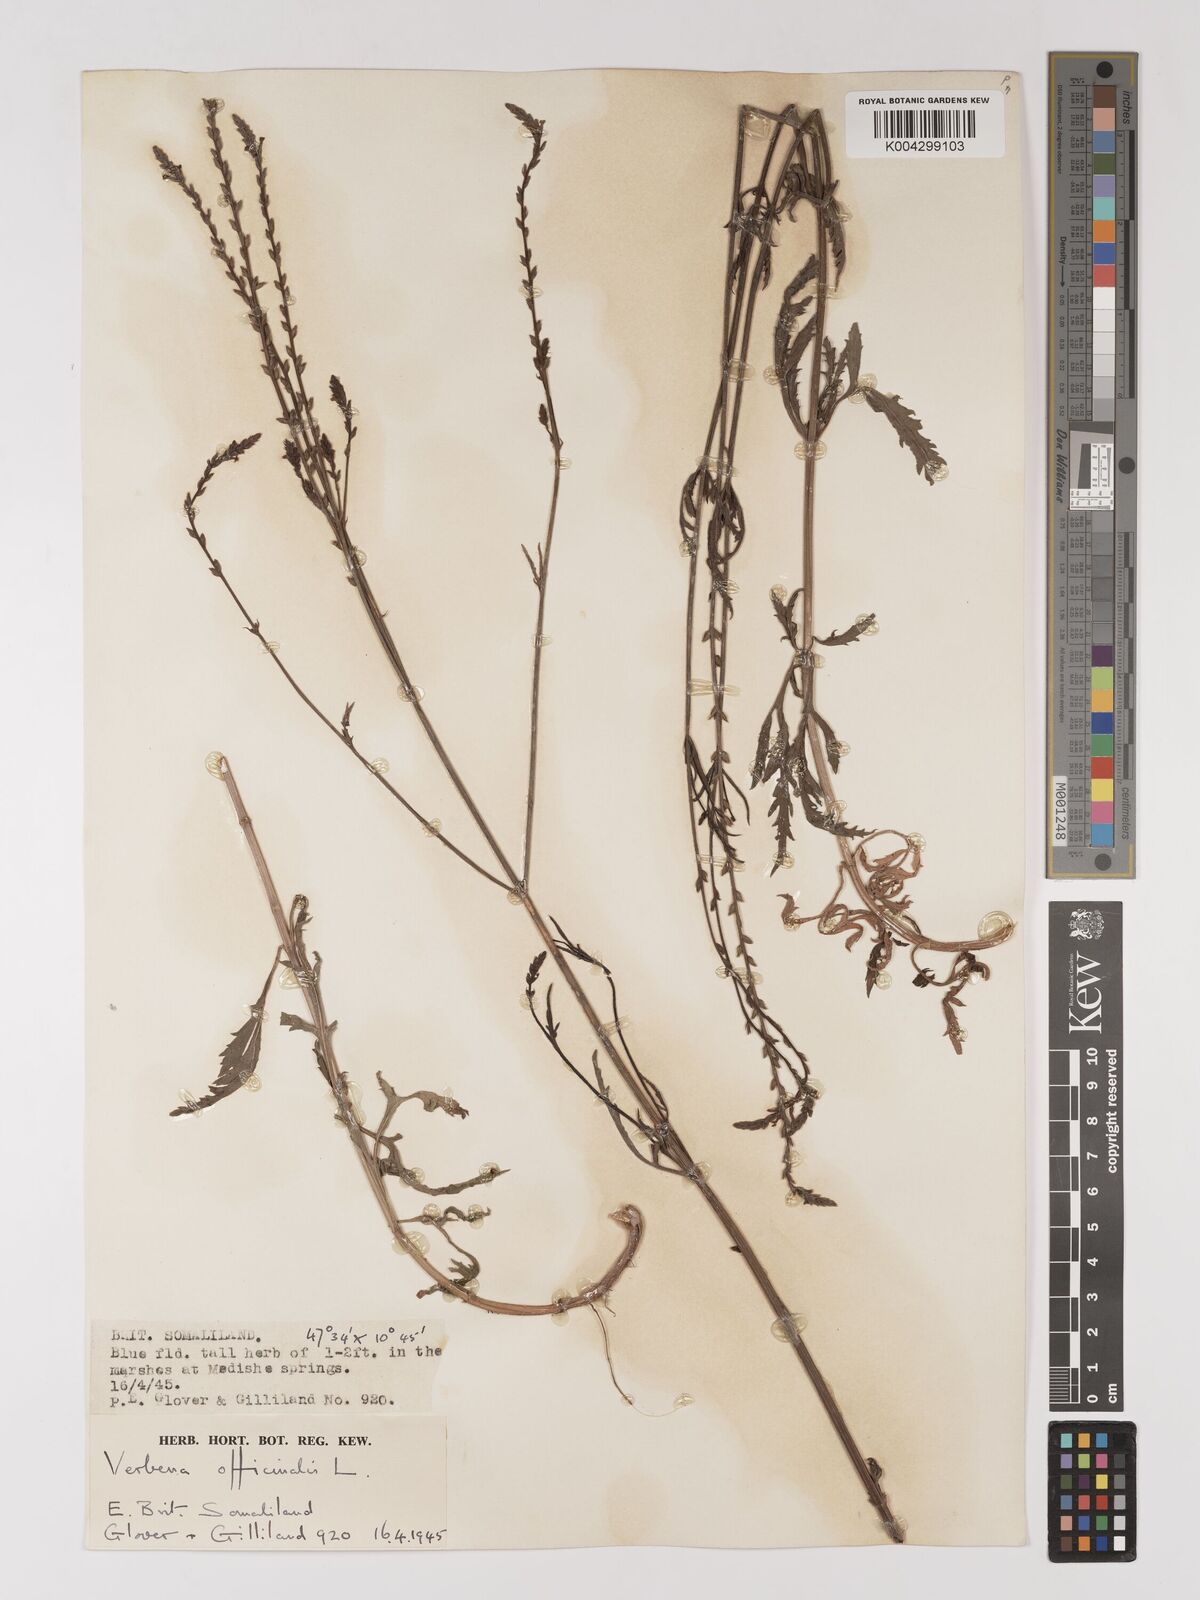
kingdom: Plantae
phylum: Tracheophyta
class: Magnoliopsida
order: Lamiales
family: Verbenaceae
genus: Verbena
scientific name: Verbena officinalis
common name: Vervain
